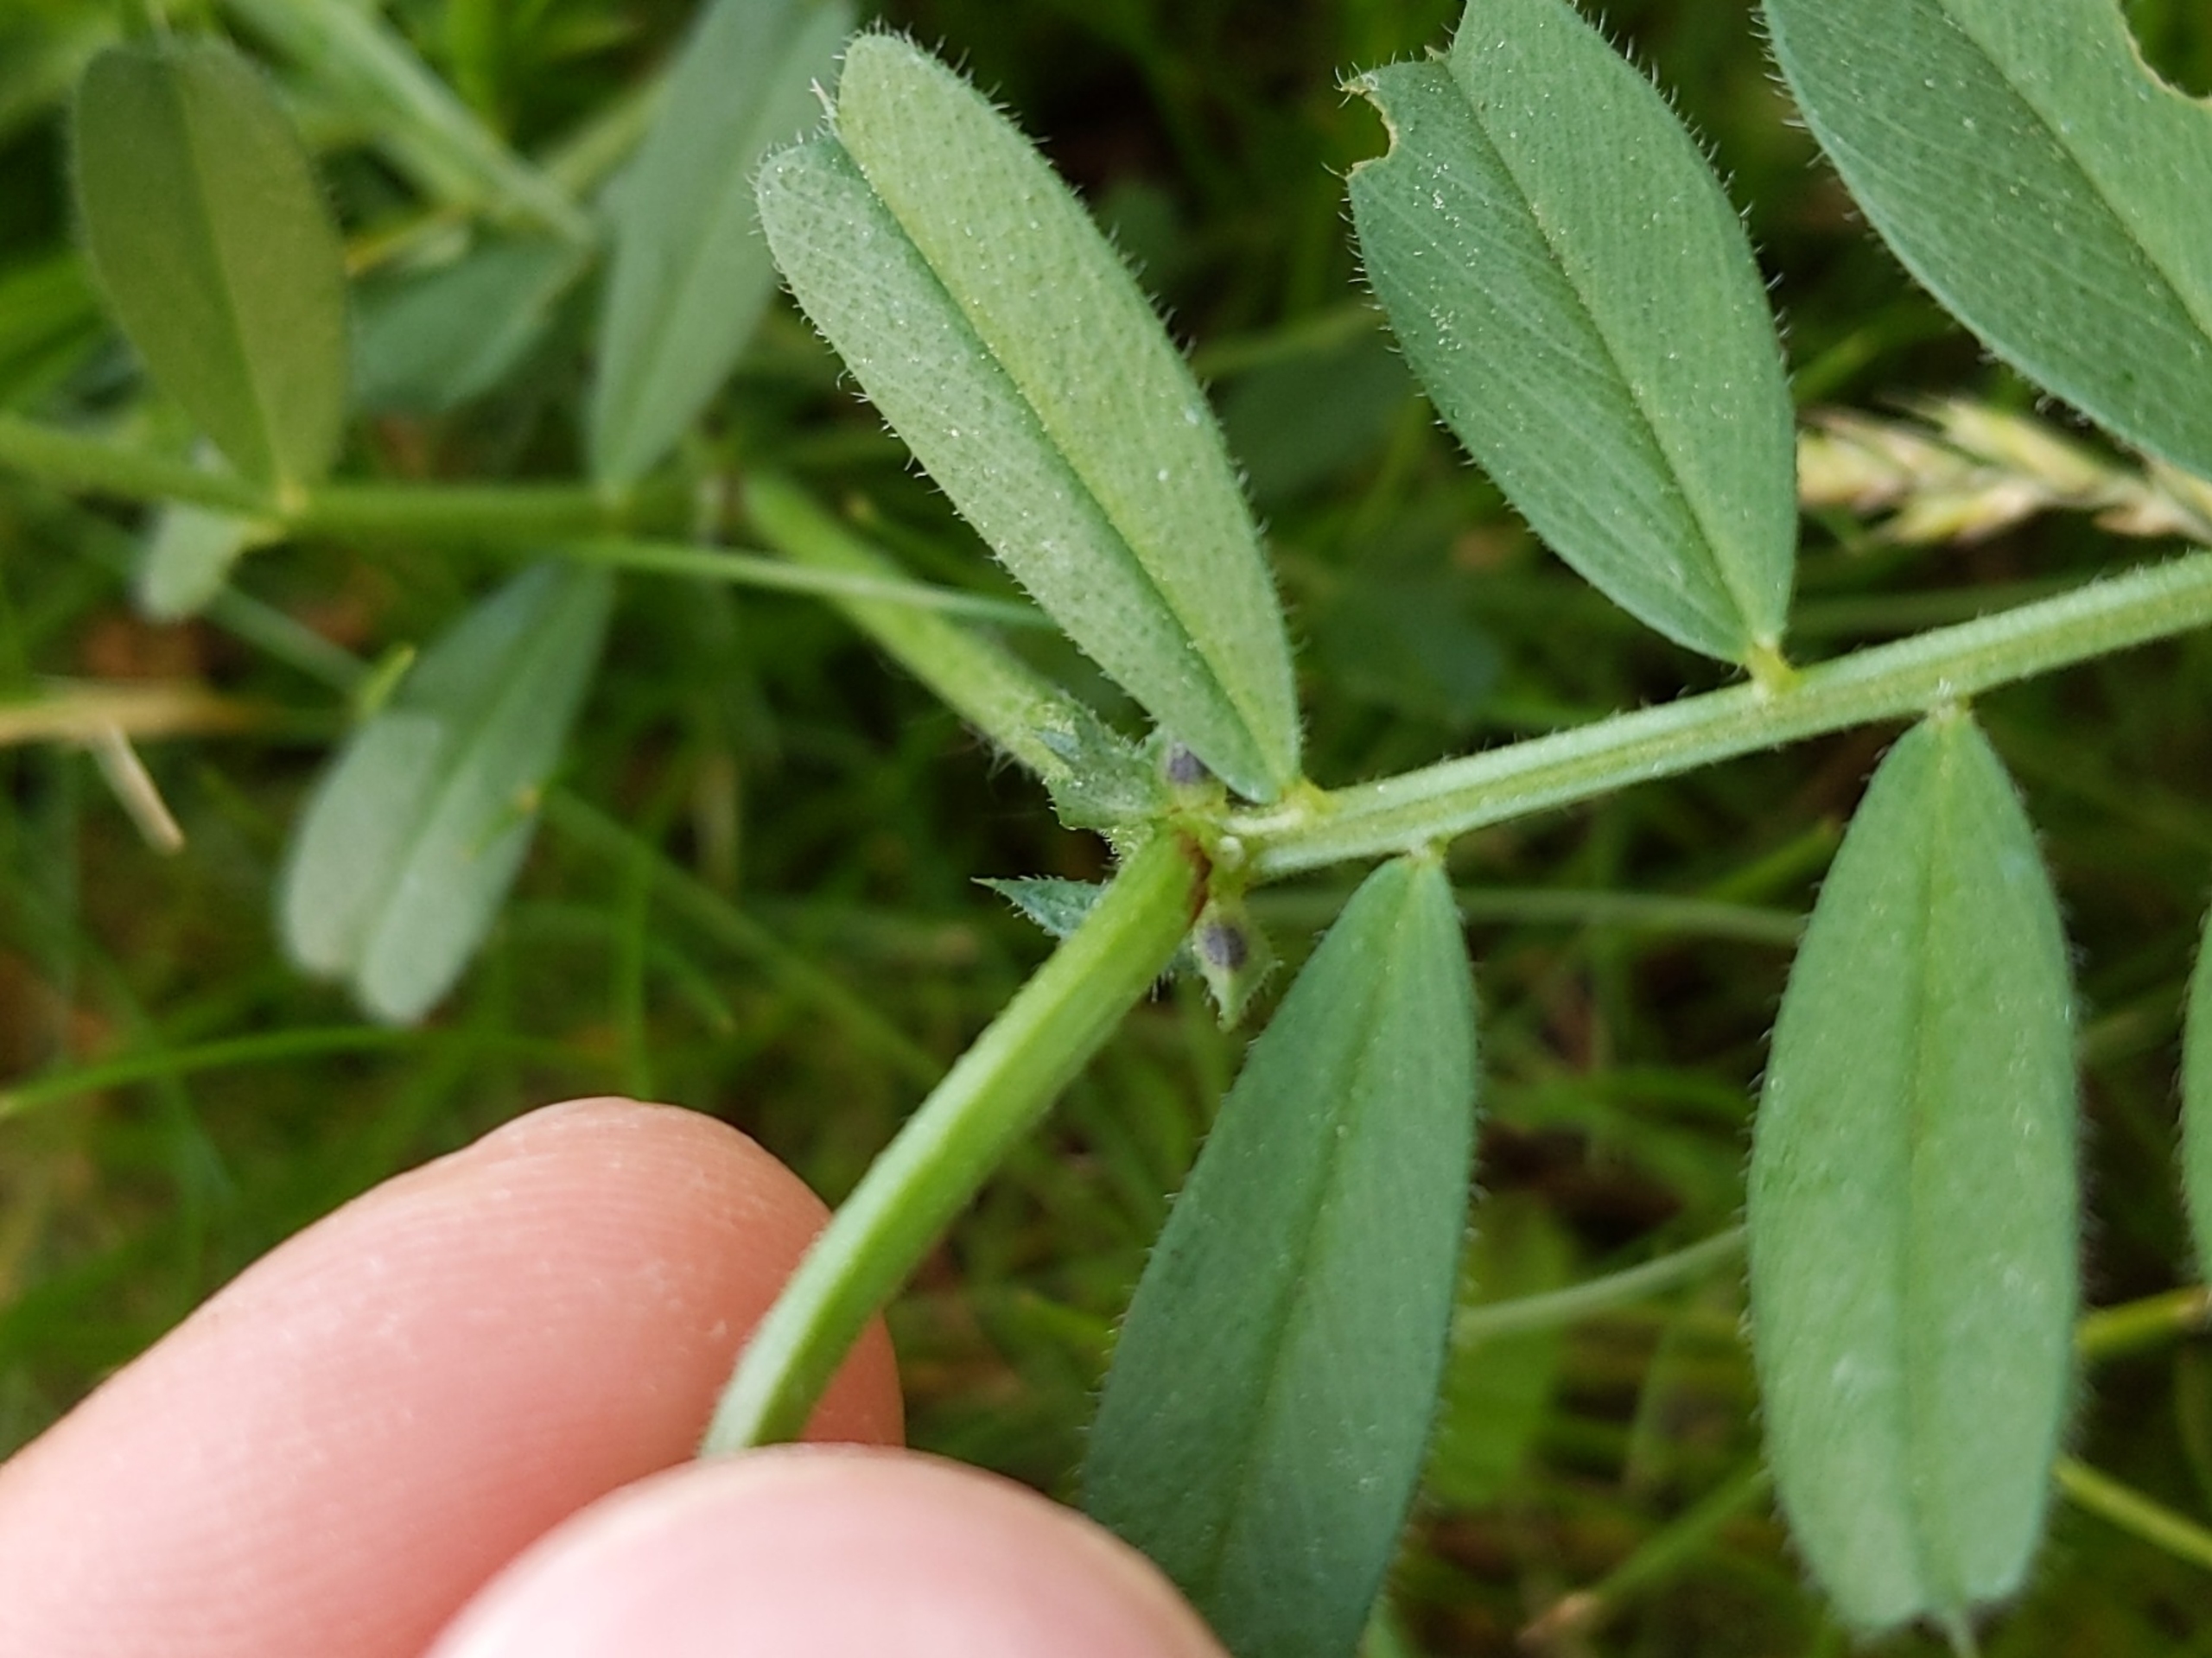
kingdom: Plantae
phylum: Tracheophyta
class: Magnoliopsida
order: Fabales
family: Fabaceae
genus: Vicia
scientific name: Vicia sativa
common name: Foder-vikke (underart)
